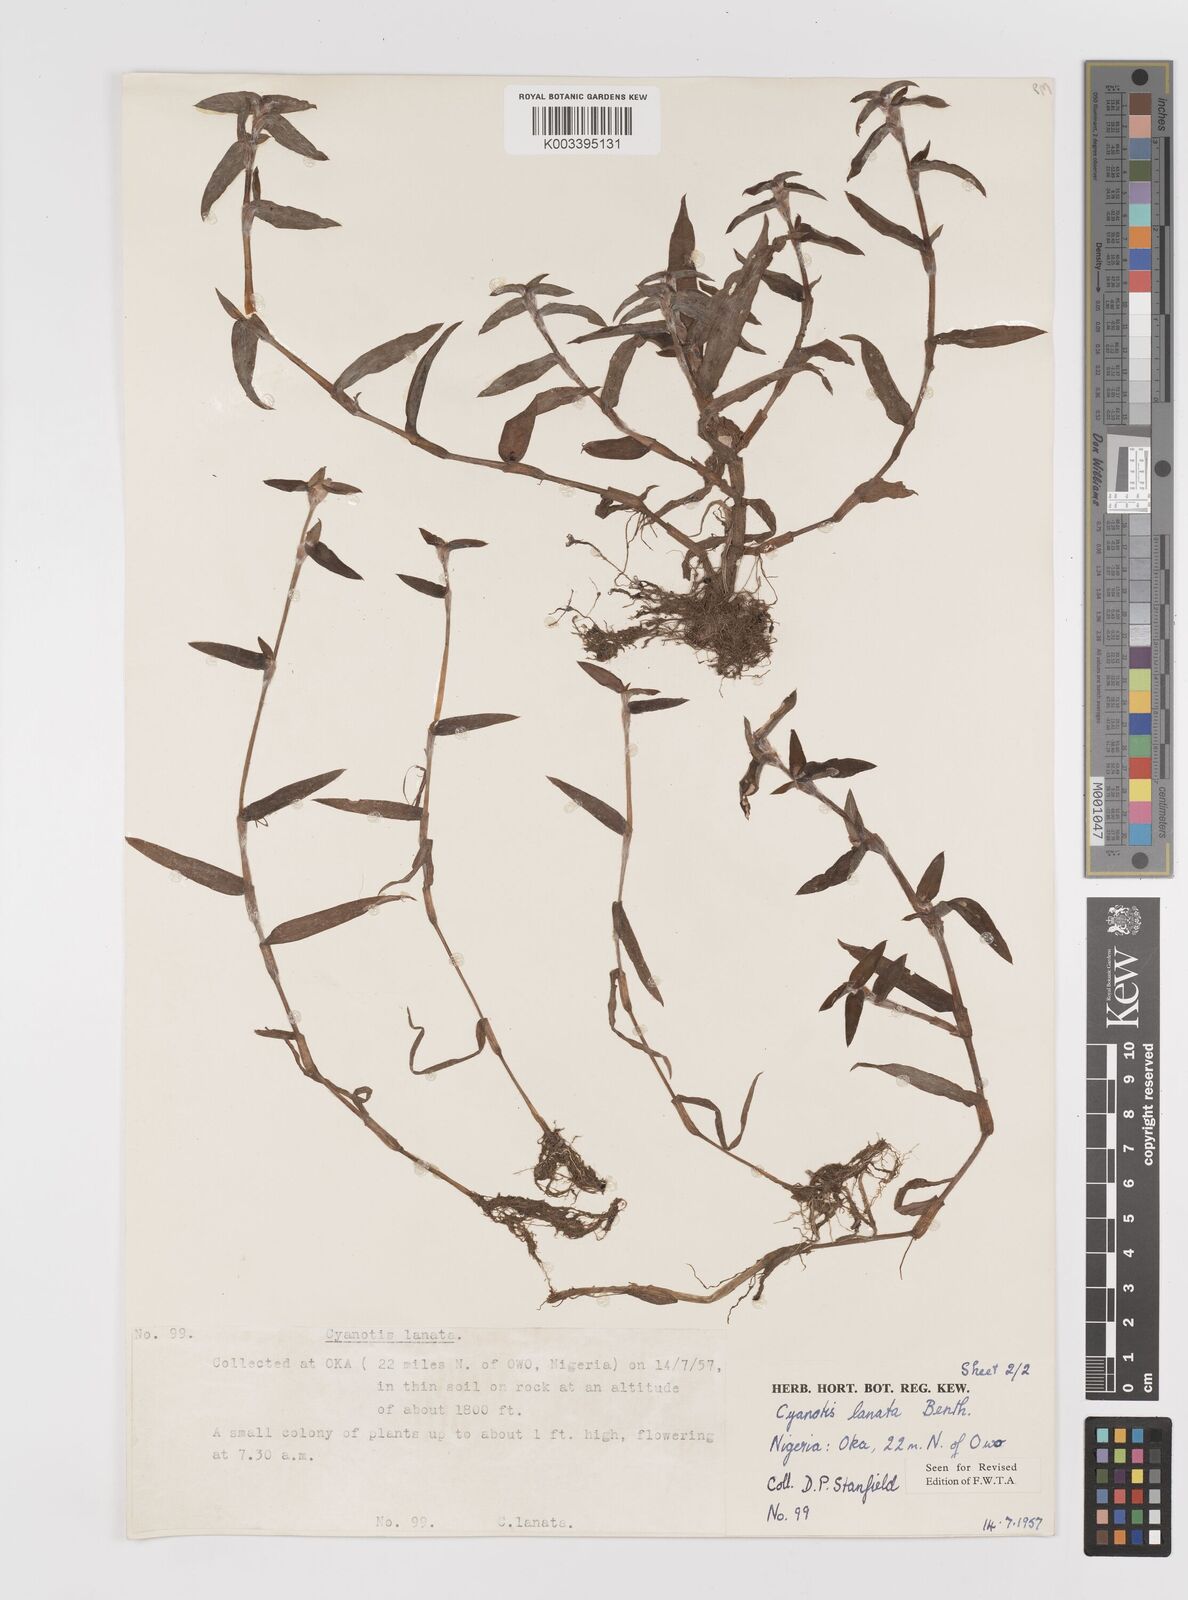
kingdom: Plantae
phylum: Tracheophyta
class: Liliopsida
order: Commelinales
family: Commelinaceae
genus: Cyanotis
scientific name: Cyanotis lanata
